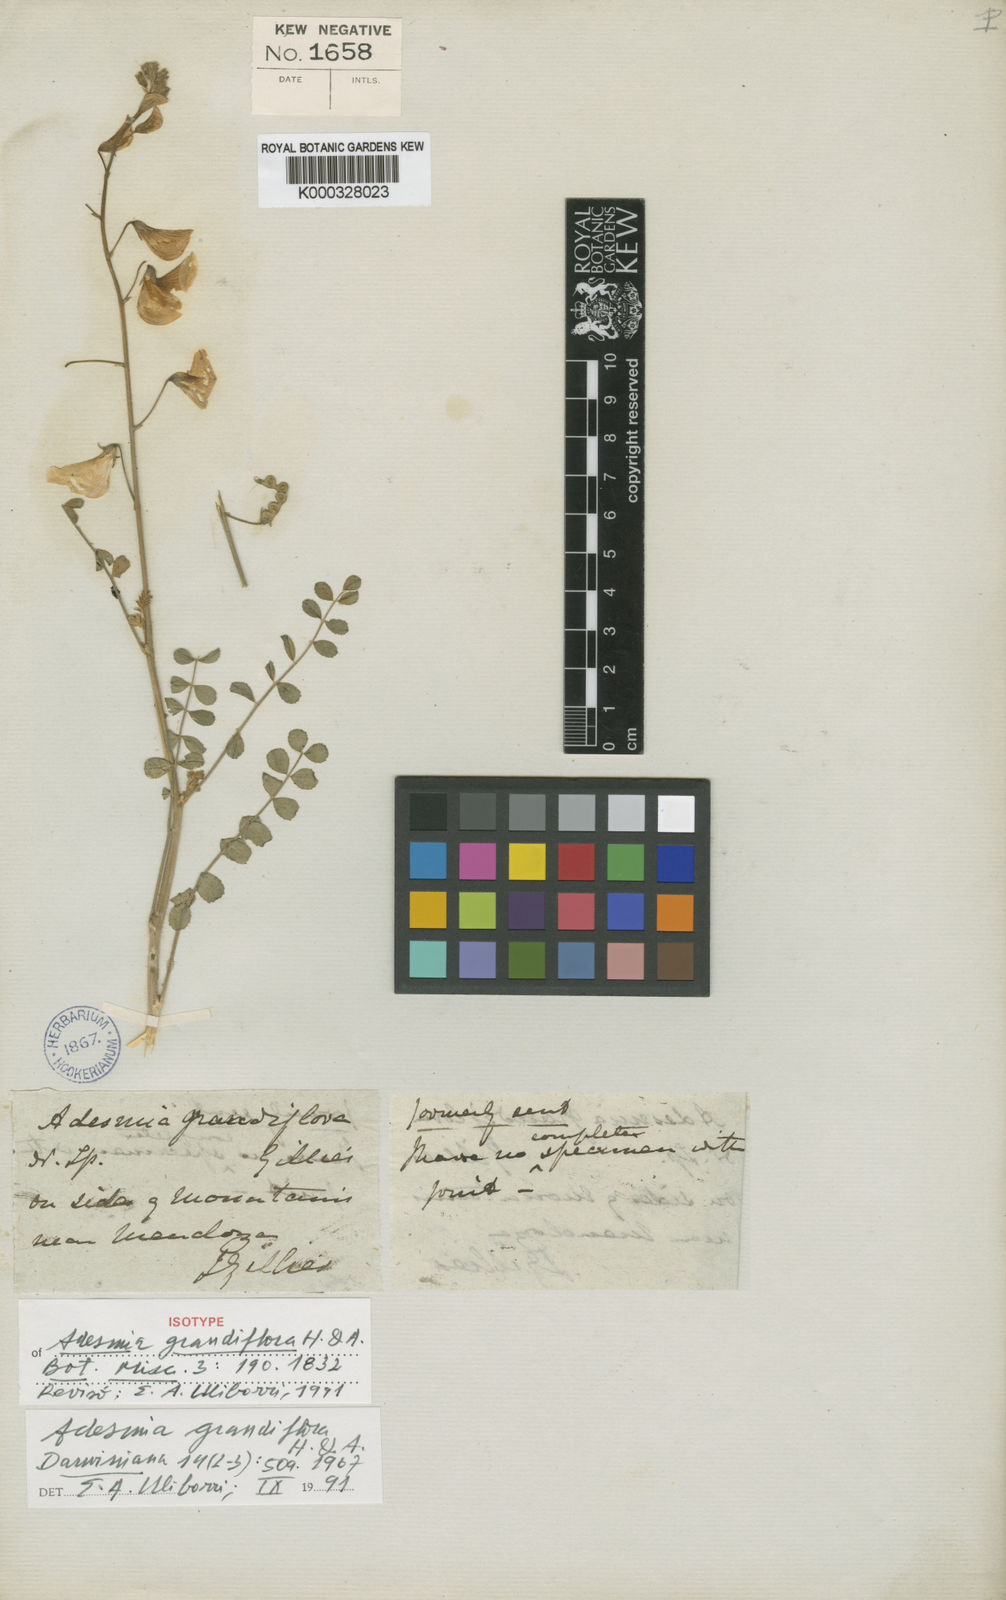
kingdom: Plantae
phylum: Tracheophyta
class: Magnoliopsida
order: Fabales
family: Fabaceae
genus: Adesmia
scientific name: Adesmia grandiflora
